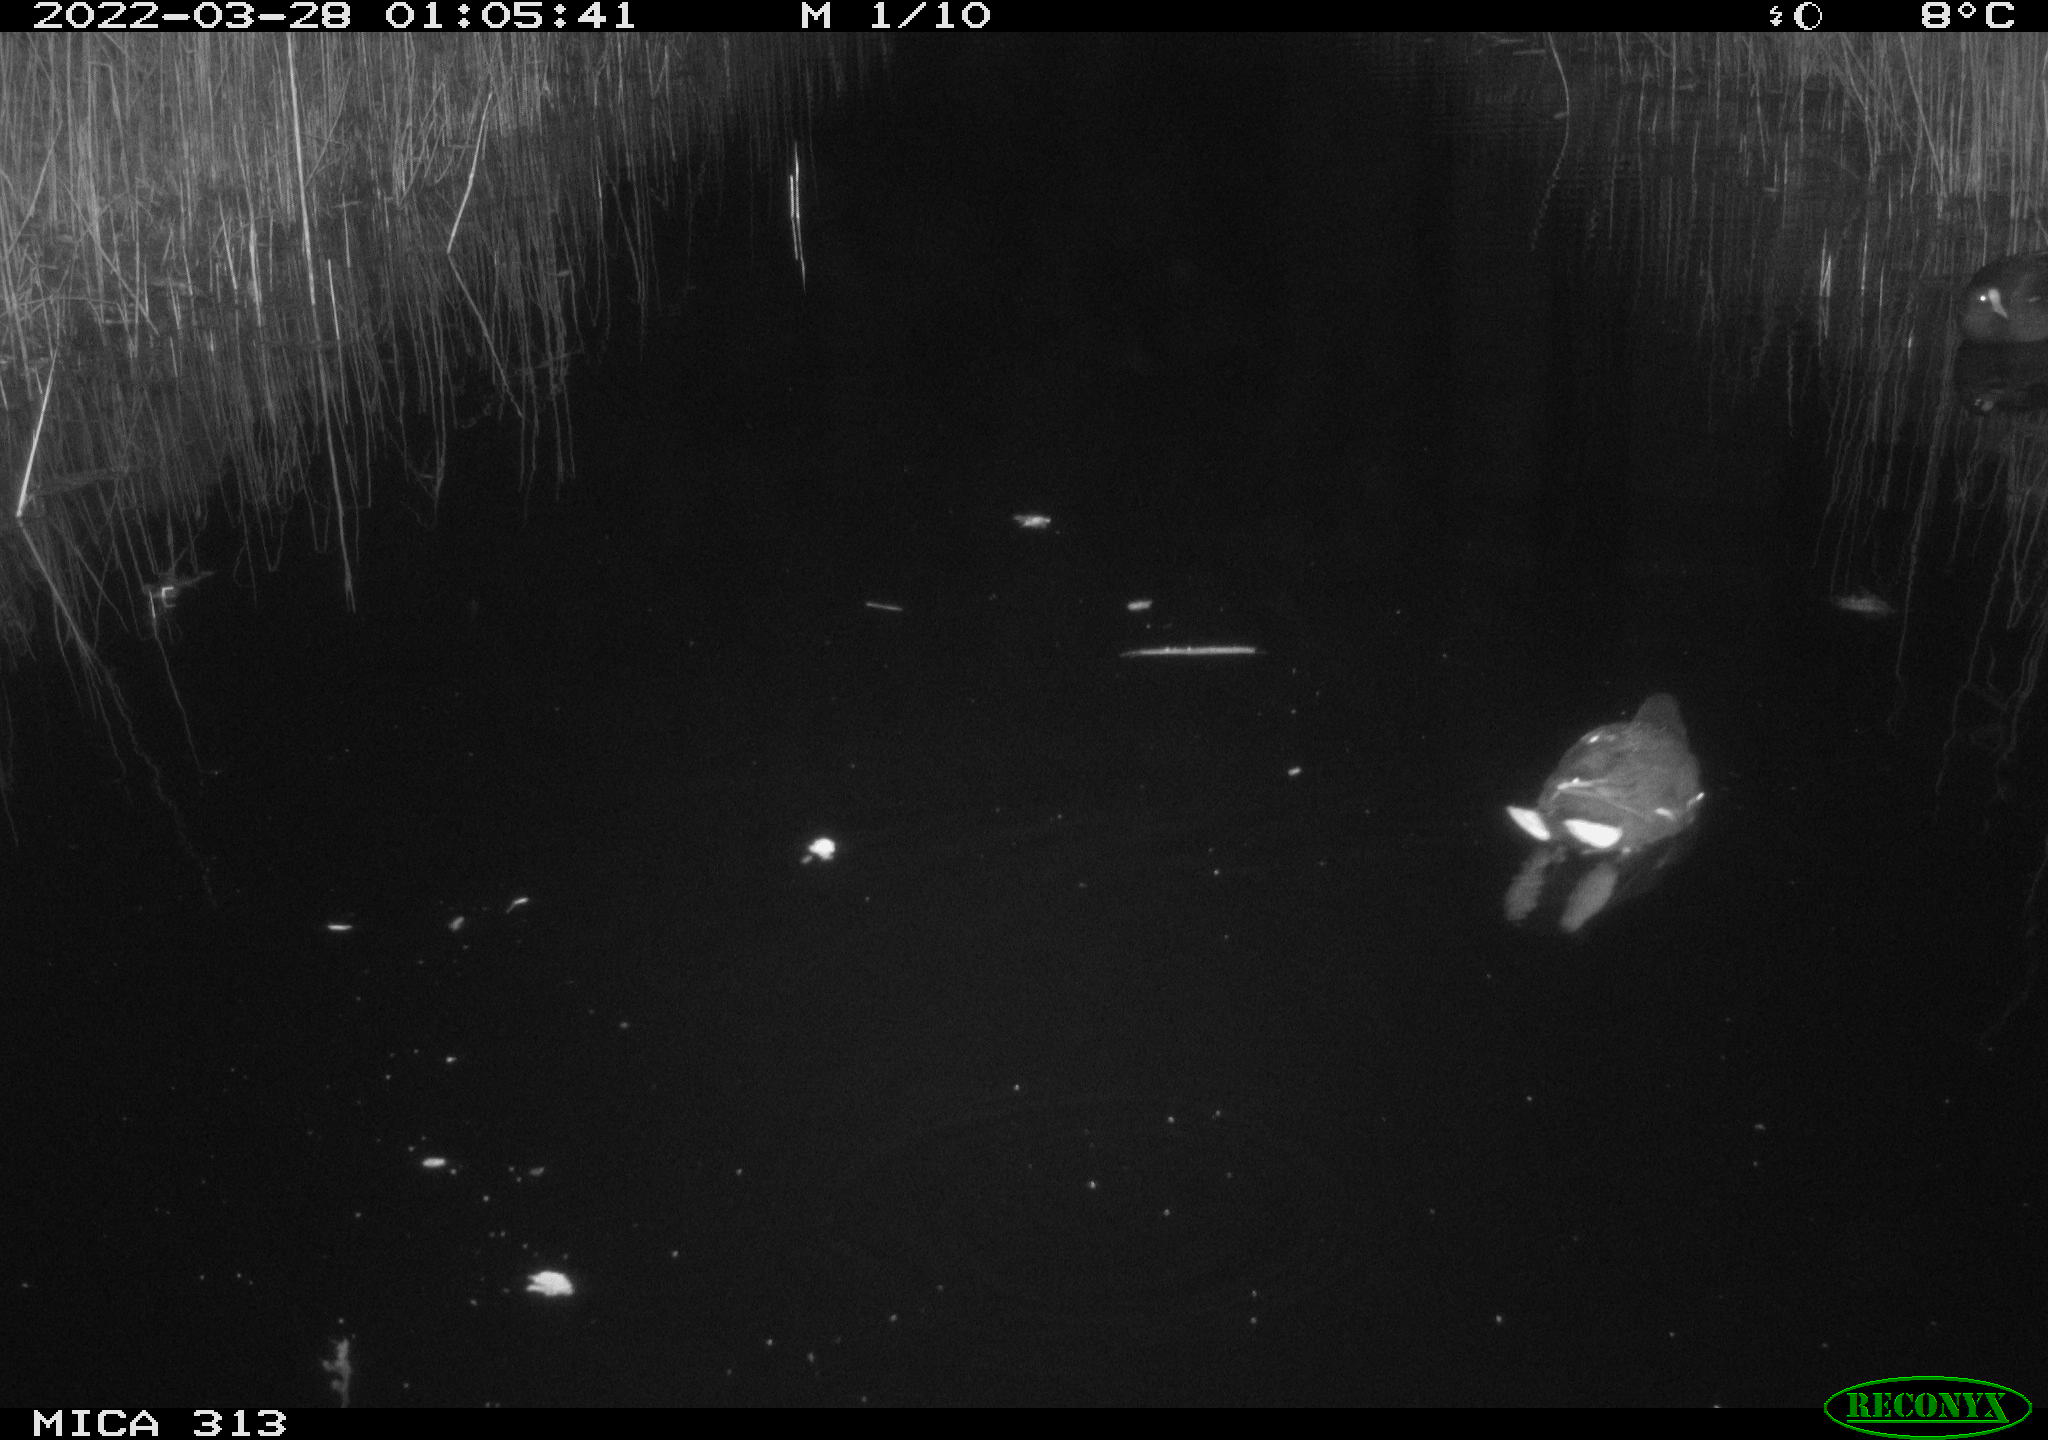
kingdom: Animalia
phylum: Chordata
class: Aves
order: Gruiformes
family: Rallidae
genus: Gallinula
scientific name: Gallinula chloropus
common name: Common moorhen
